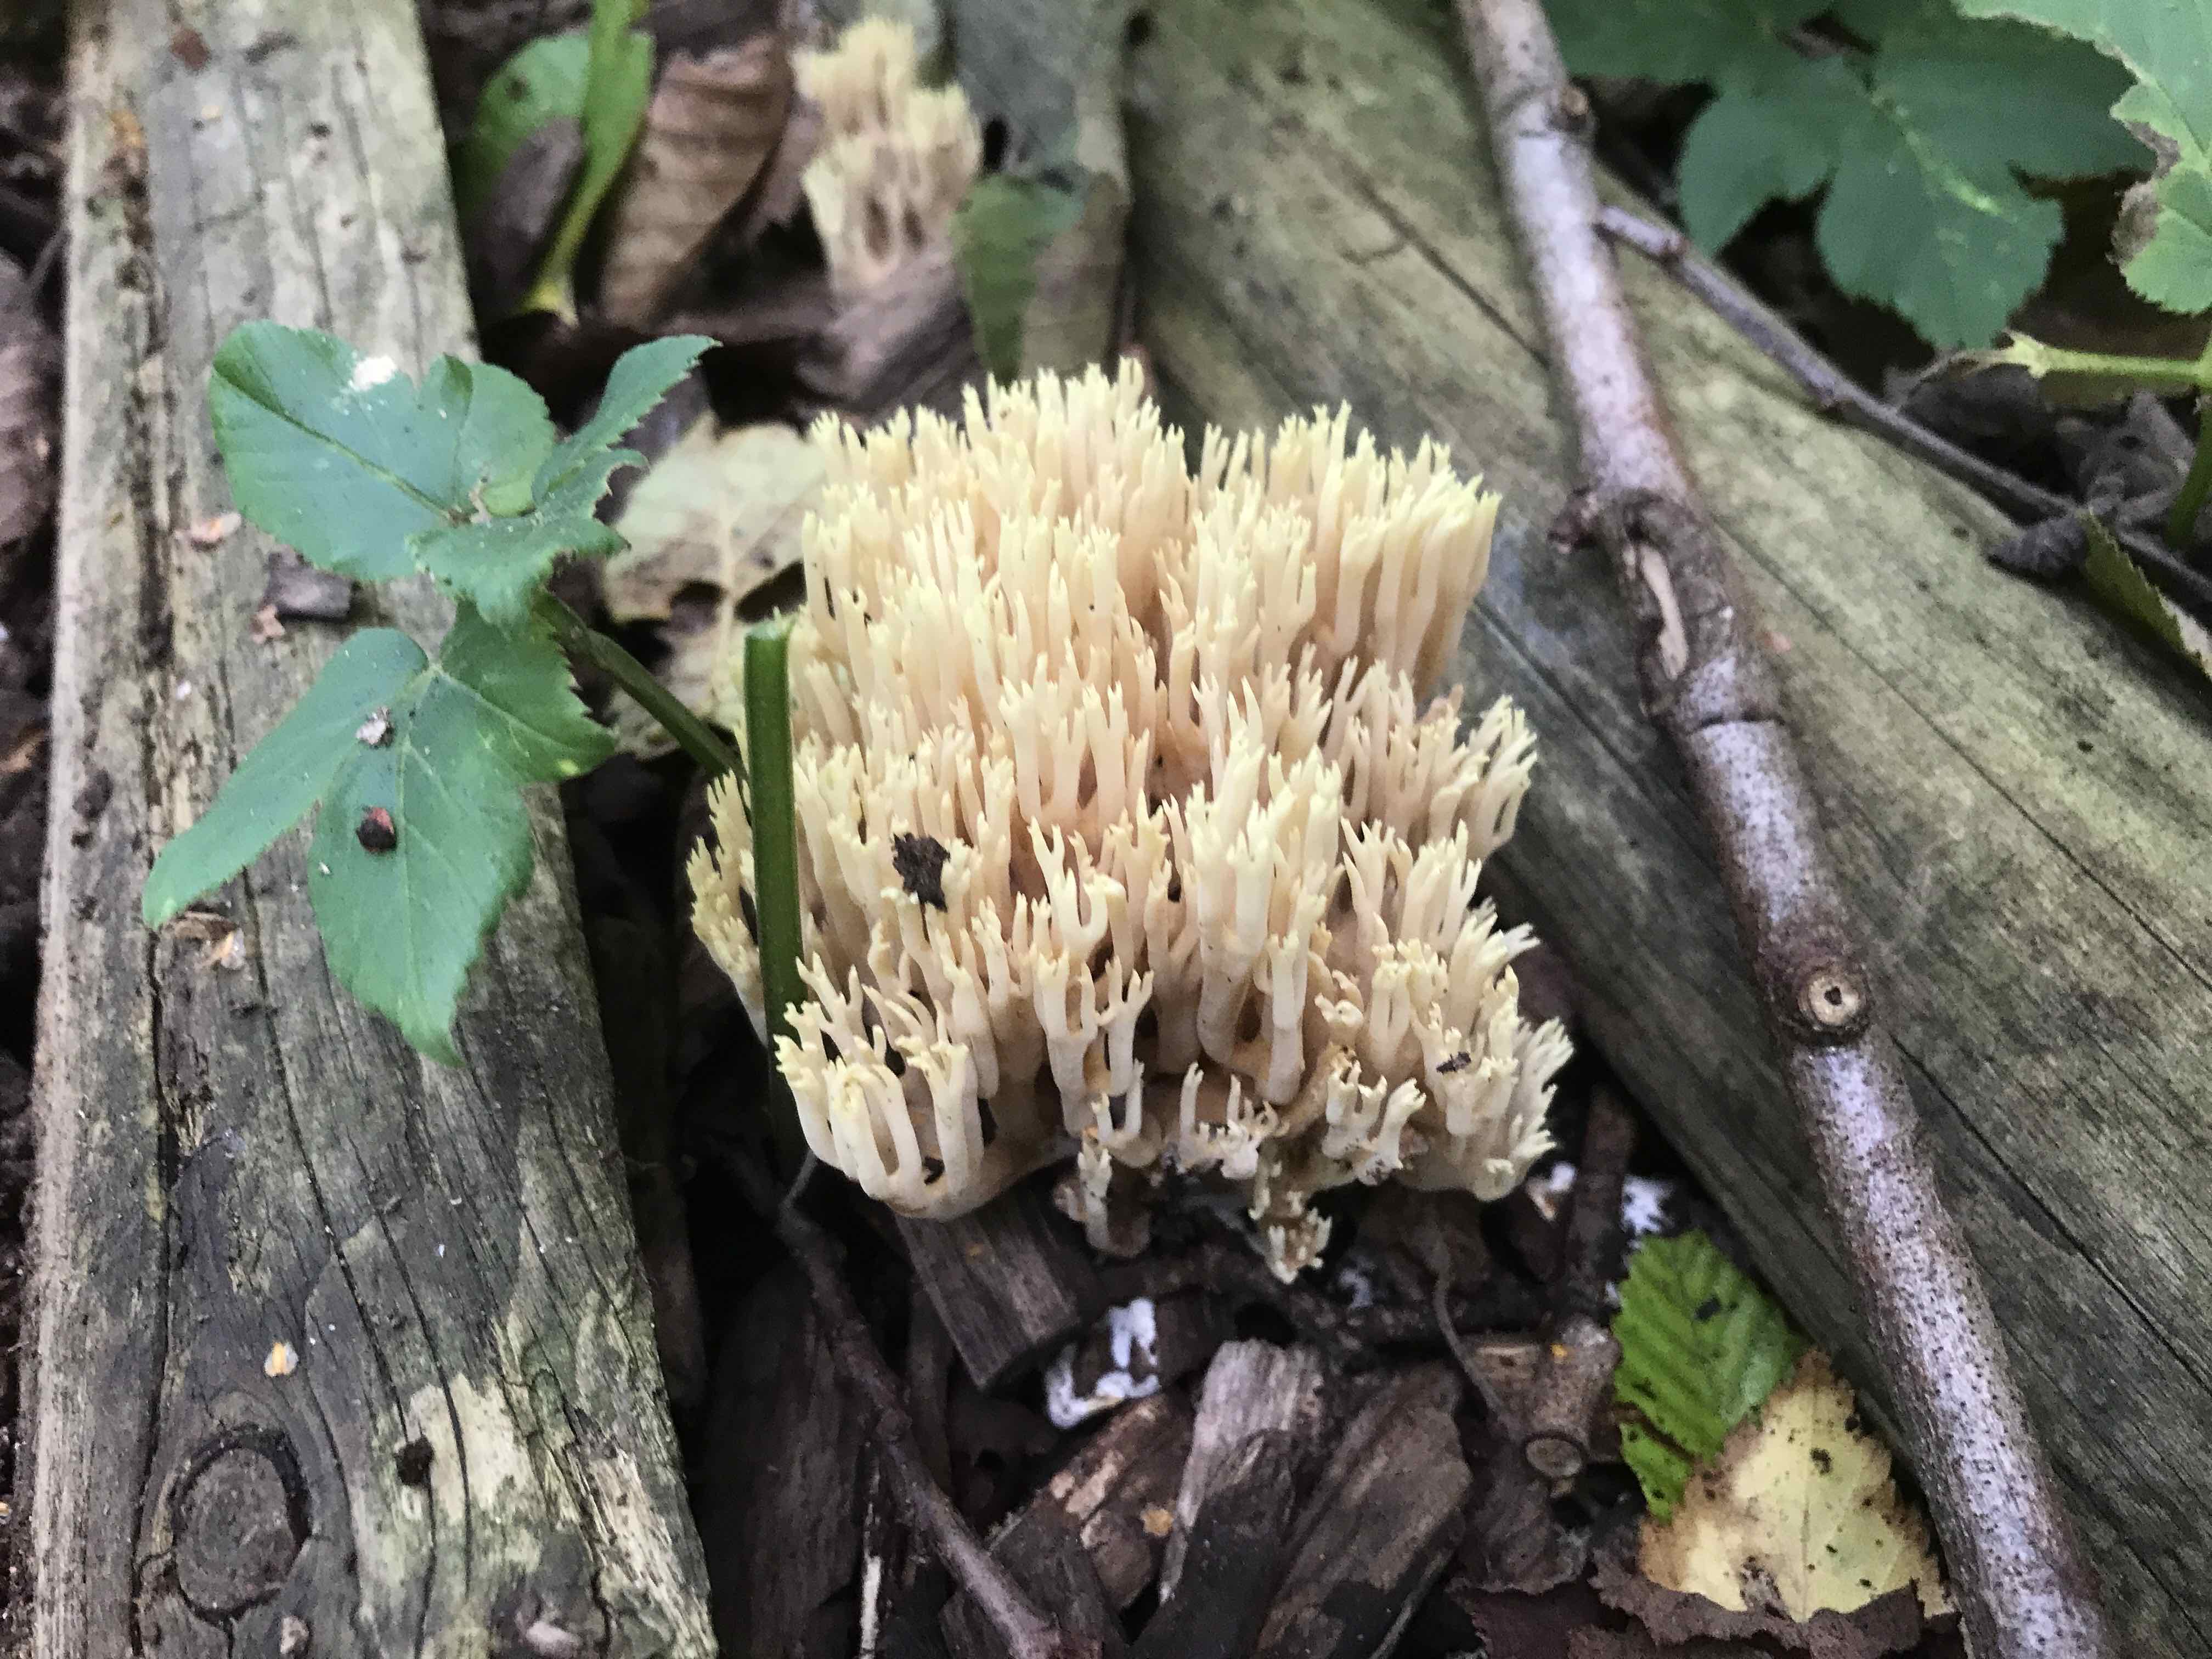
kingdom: Fungi
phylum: Basidiomycota
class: Agaricomycetes
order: Gomphales
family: Gomphaceae
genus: Ramaria
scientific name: Ramaria stricta
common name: rank koralsvamp
